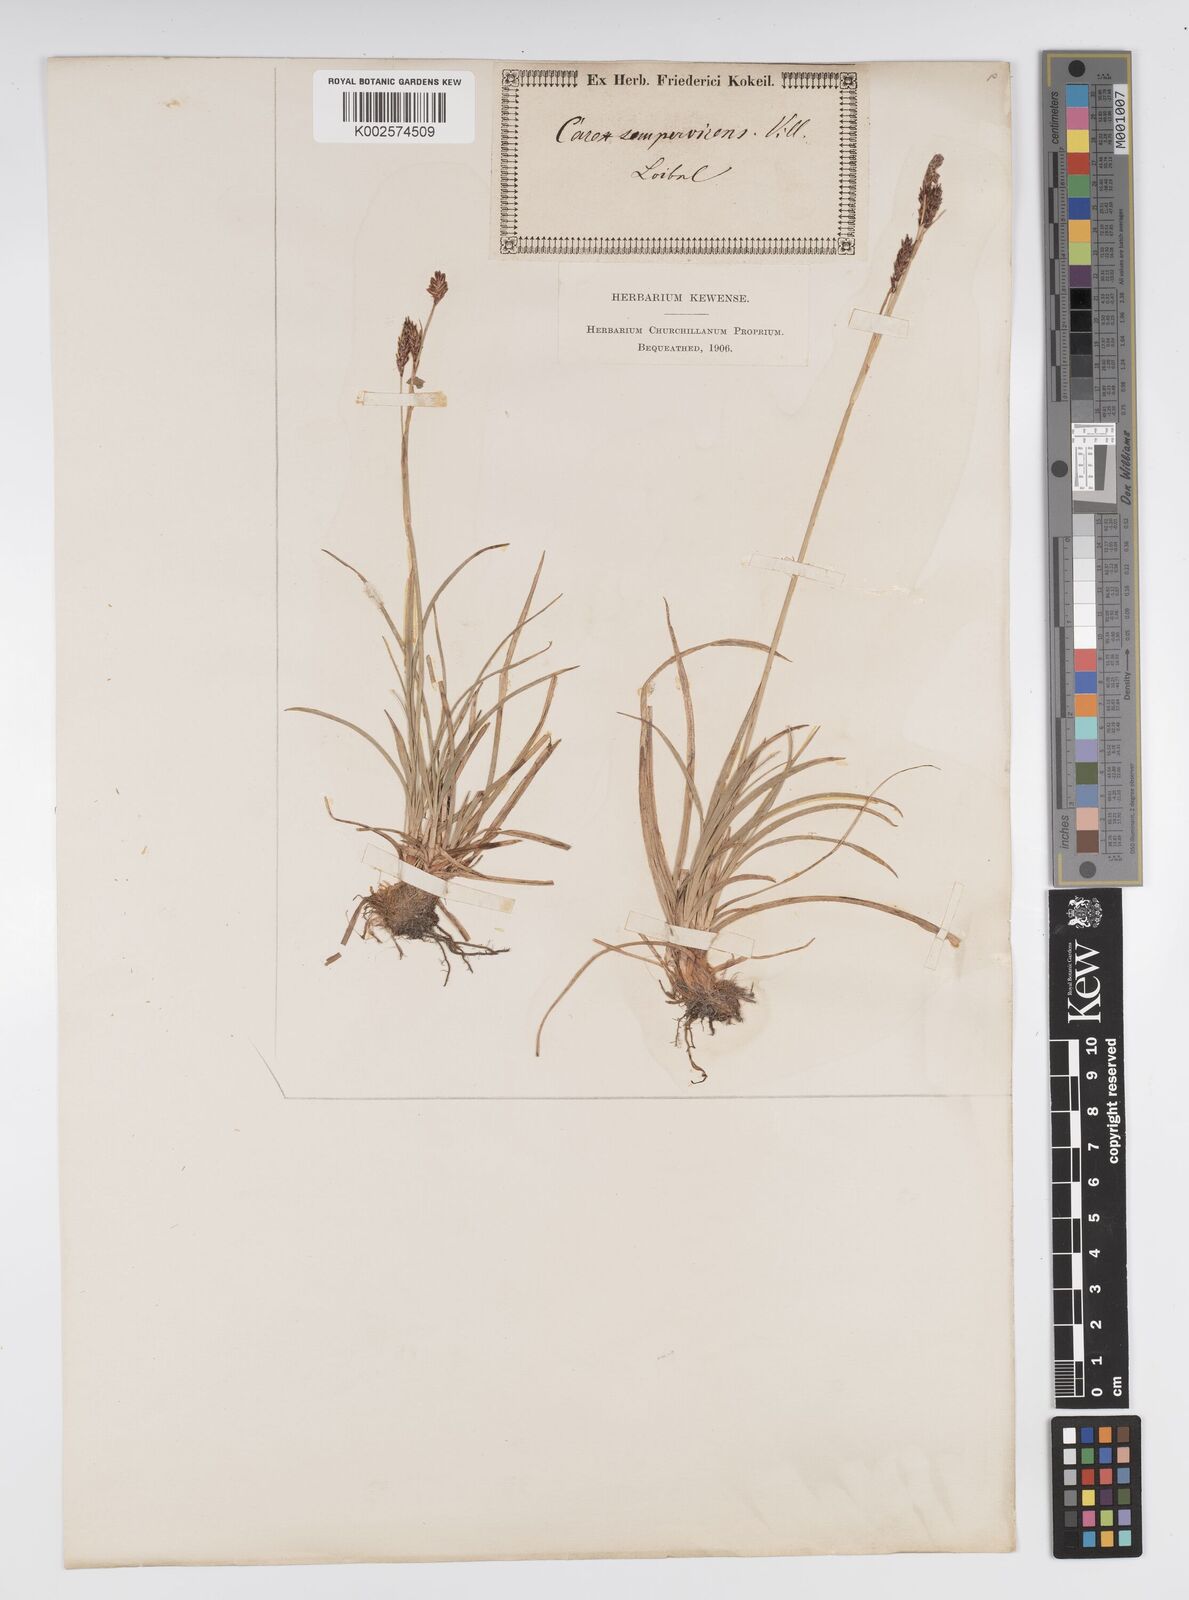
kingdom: Plantae
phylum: Tracheophyta
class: Liliopsida
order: Poales
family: Cyperaceae
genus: Carex
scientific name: Carex sempervirens
